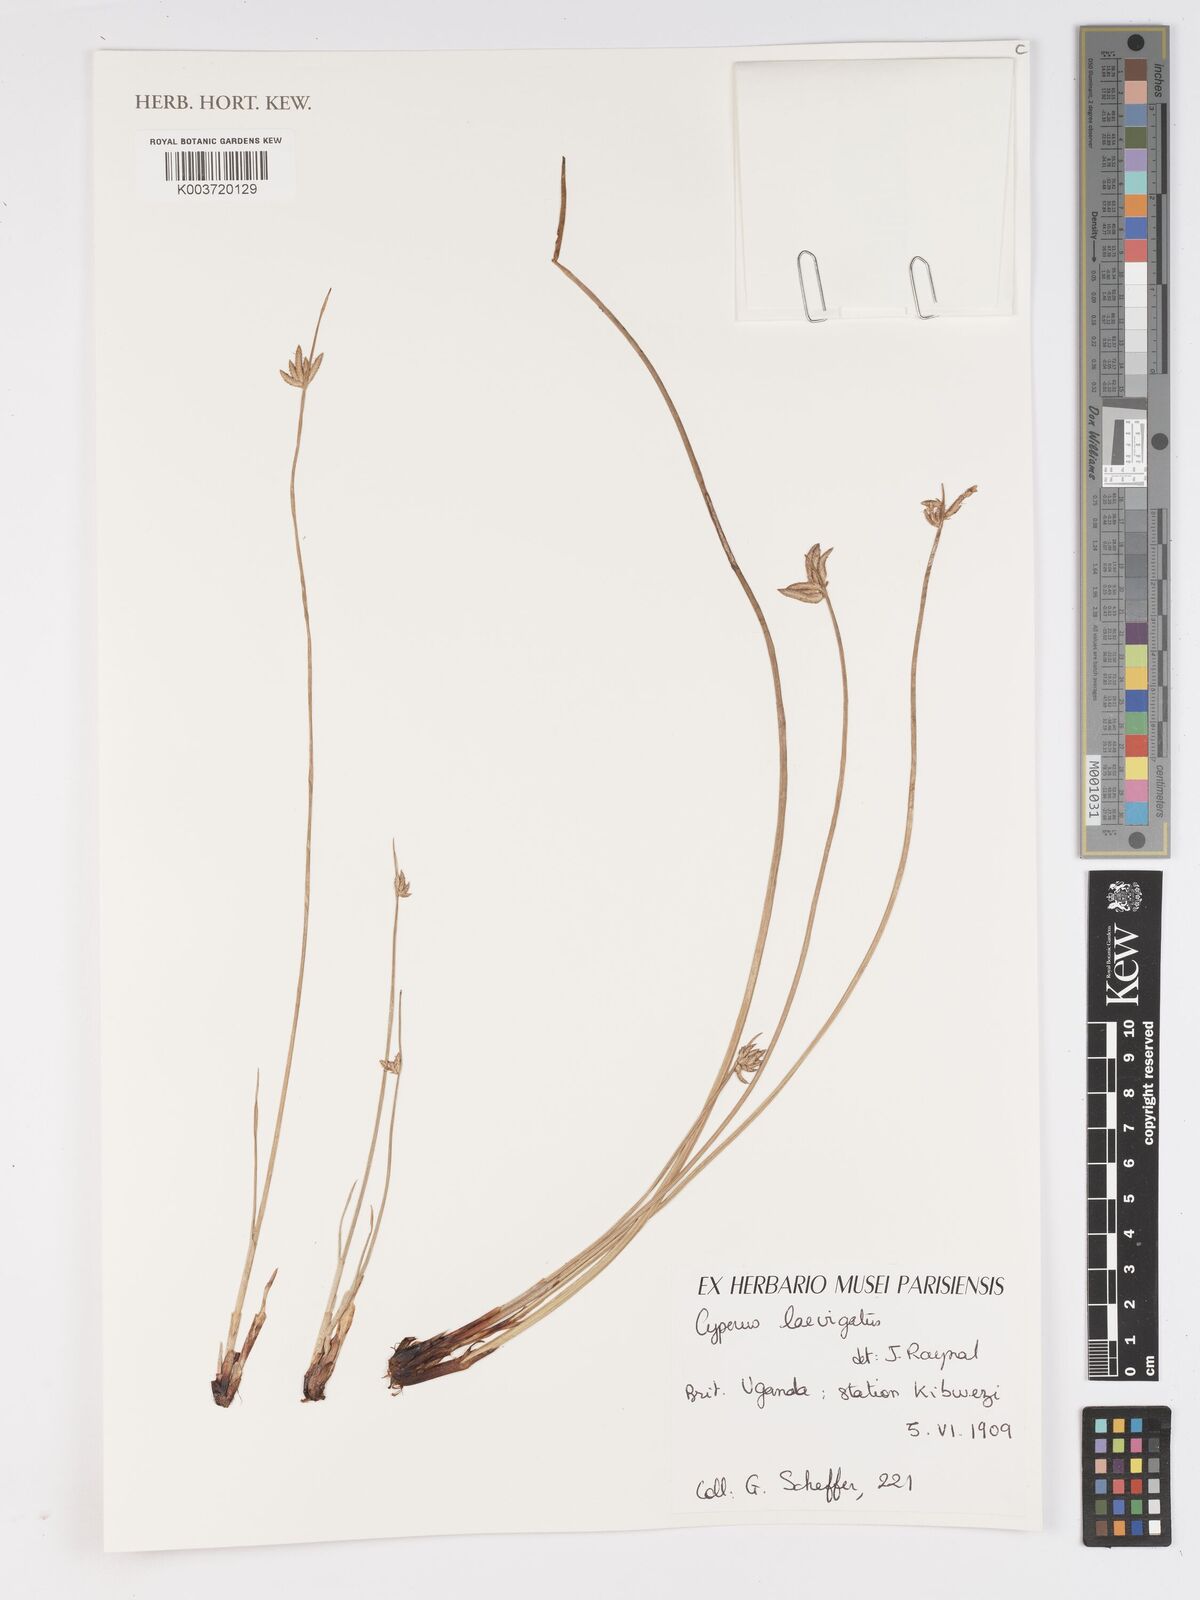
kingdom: Plantae
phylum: Tracheophyta
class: Liliopsida
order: Poales
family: Cyperaceae
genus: Cyperus
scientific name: Cyperus laevigatus
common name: Smooth flat sedge
